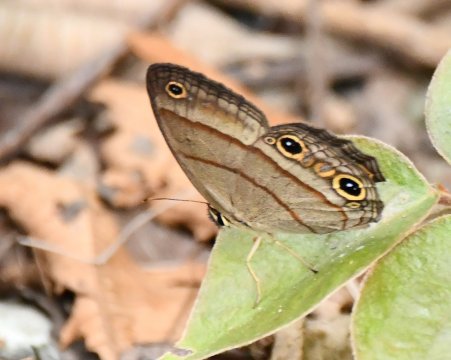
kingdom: Animalia
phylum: Arthropoda
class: Insecta
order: Lepidoptera
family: Nymphalidae
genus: Euptychia
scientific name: Euptychia Cissia pompilia
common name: Plain Satyr
